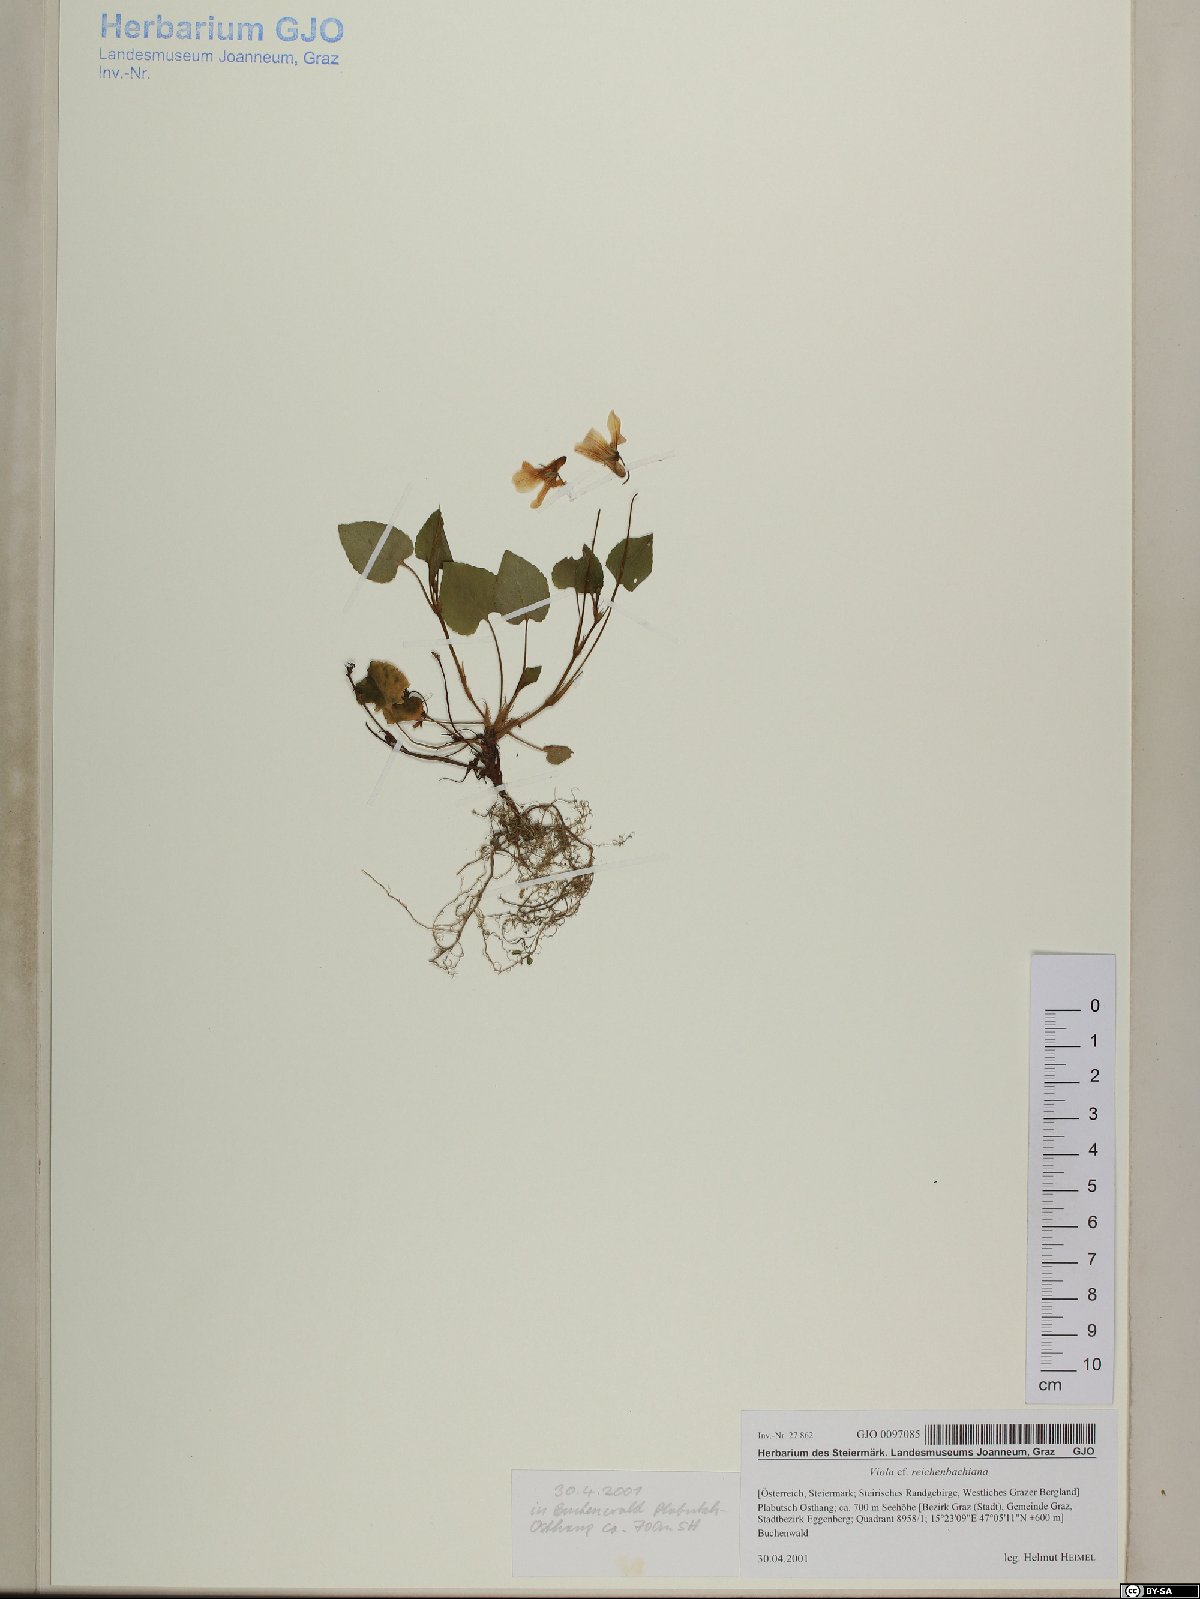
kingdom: Plantae
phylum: Tracheophyta
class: Magnoliopsida
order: Malpighiales
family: Violaceae
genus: Viola
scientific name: Viola reichenbachiana
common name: Early dog-violet
